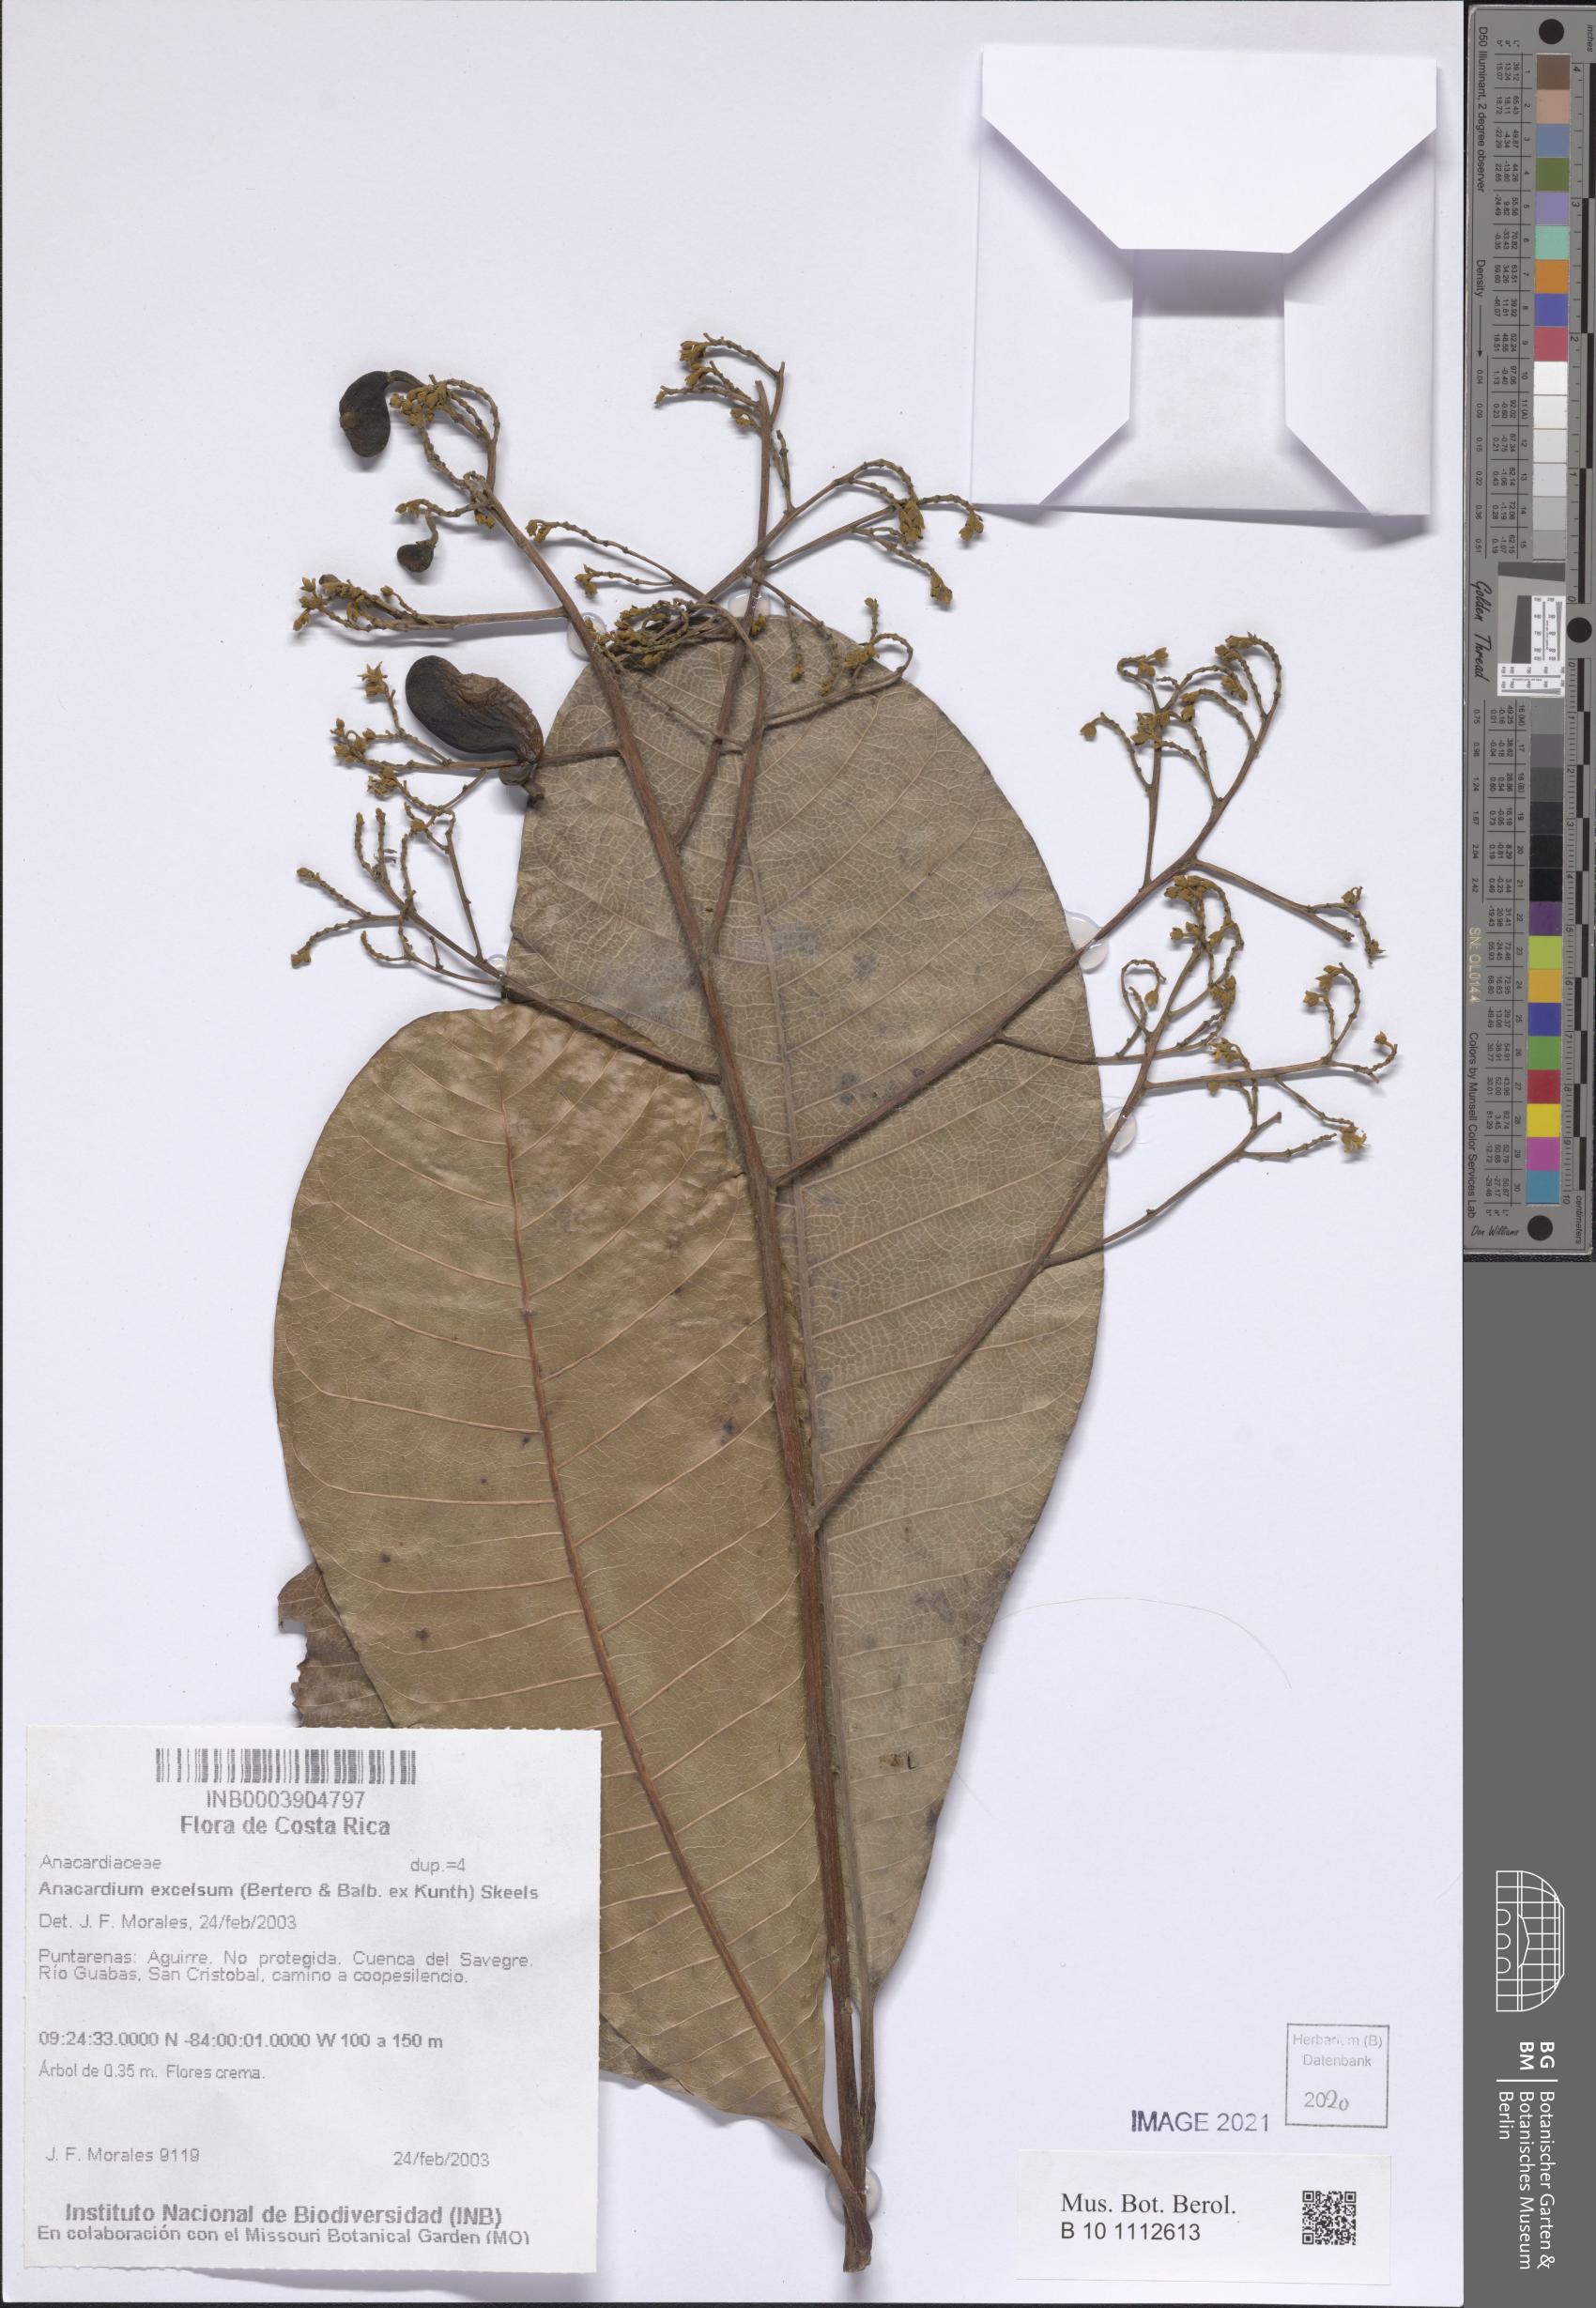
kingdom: Plantae
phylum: Tracheophyta
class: Magnoliopsida
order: Sapindales
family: Anacardiaceae
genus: Anacardium
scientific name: Anacardium excelsum
